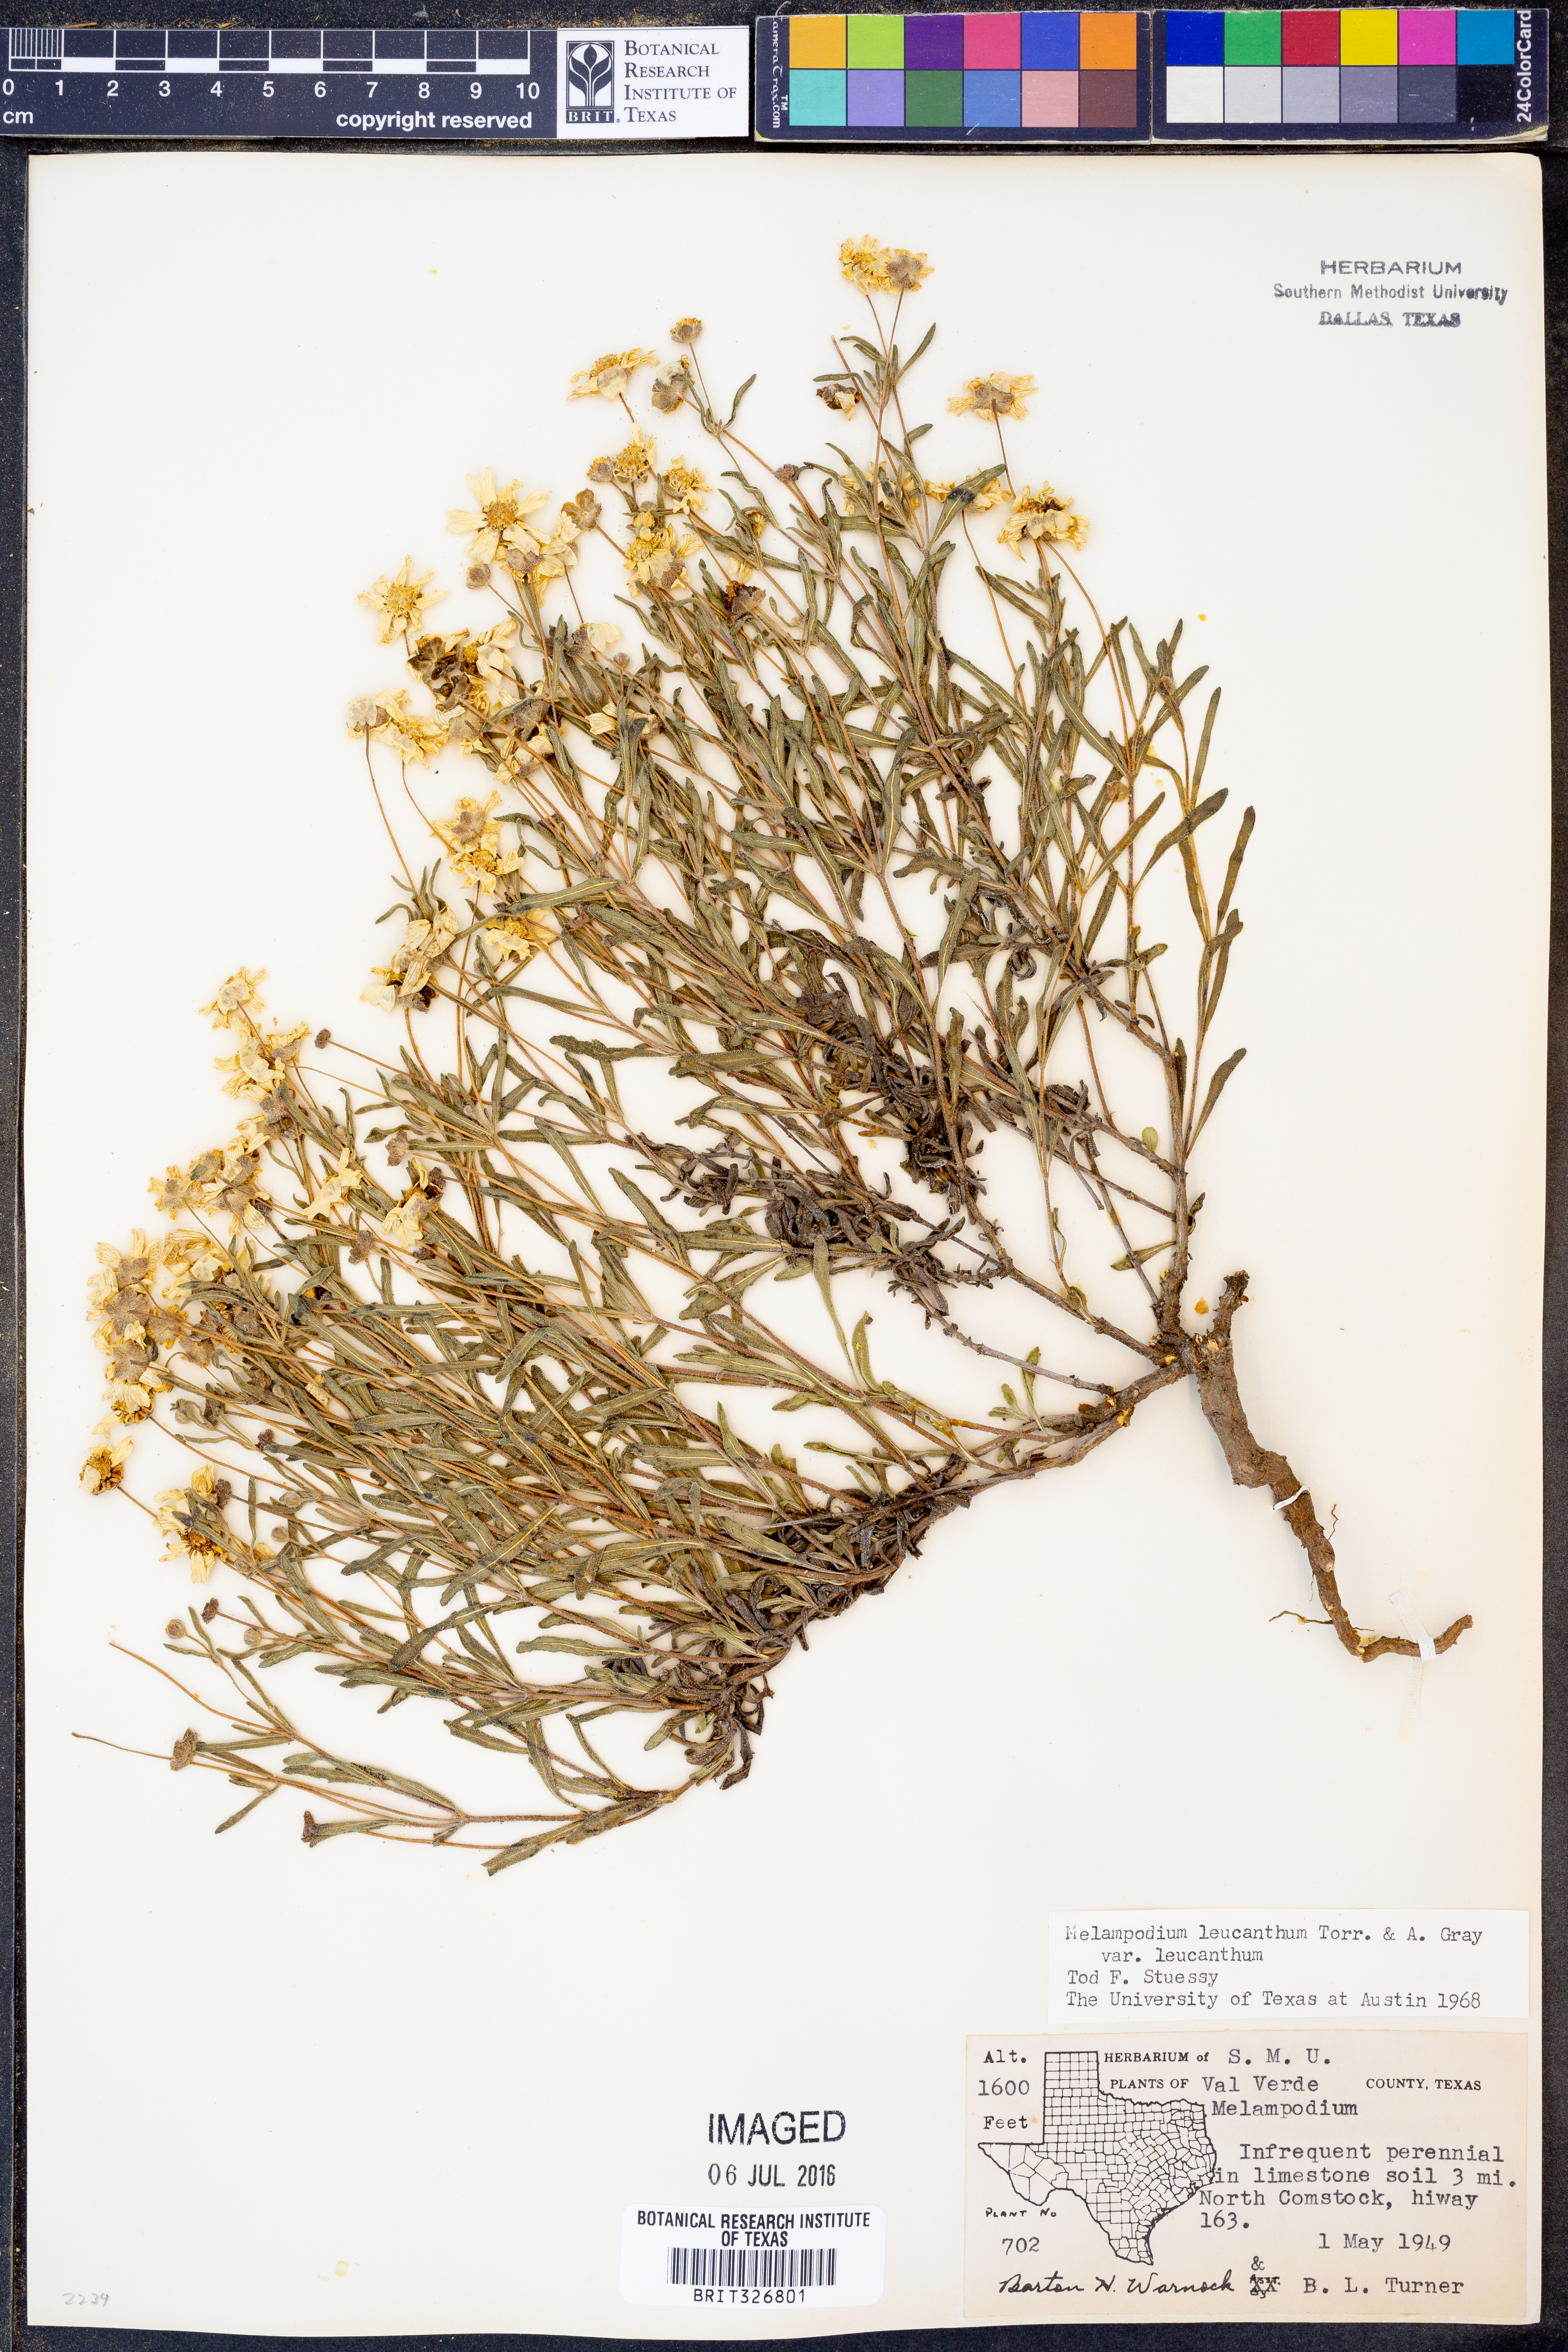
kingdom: Plantae
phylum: Tracheophyta
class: Magnoliopsida
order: Asterales
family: Asteraceae
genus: Melampodium
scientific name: Melampodium leucanthum
